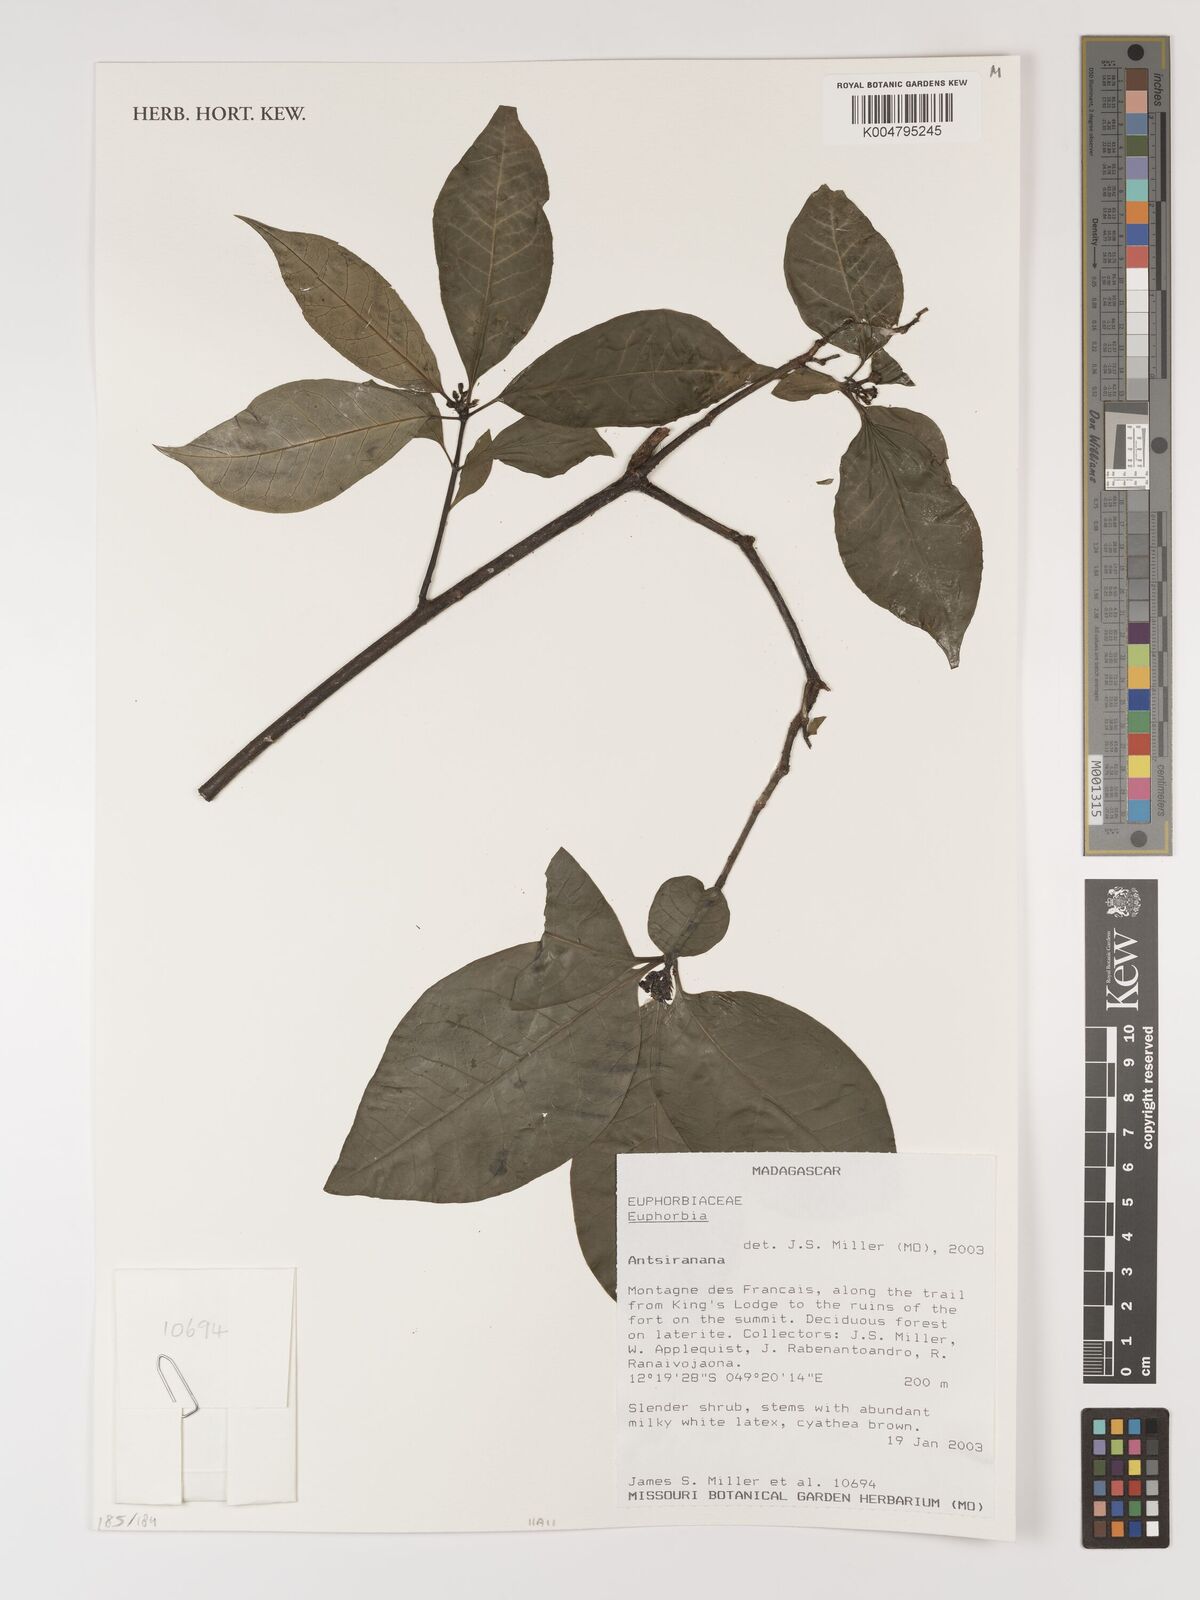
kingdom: Plantae
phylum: Tracheophyta
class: Magnoliopsida
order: Malpighiales
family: Euphorbiaceae
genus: Euphorbia
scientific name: Euphorbia
